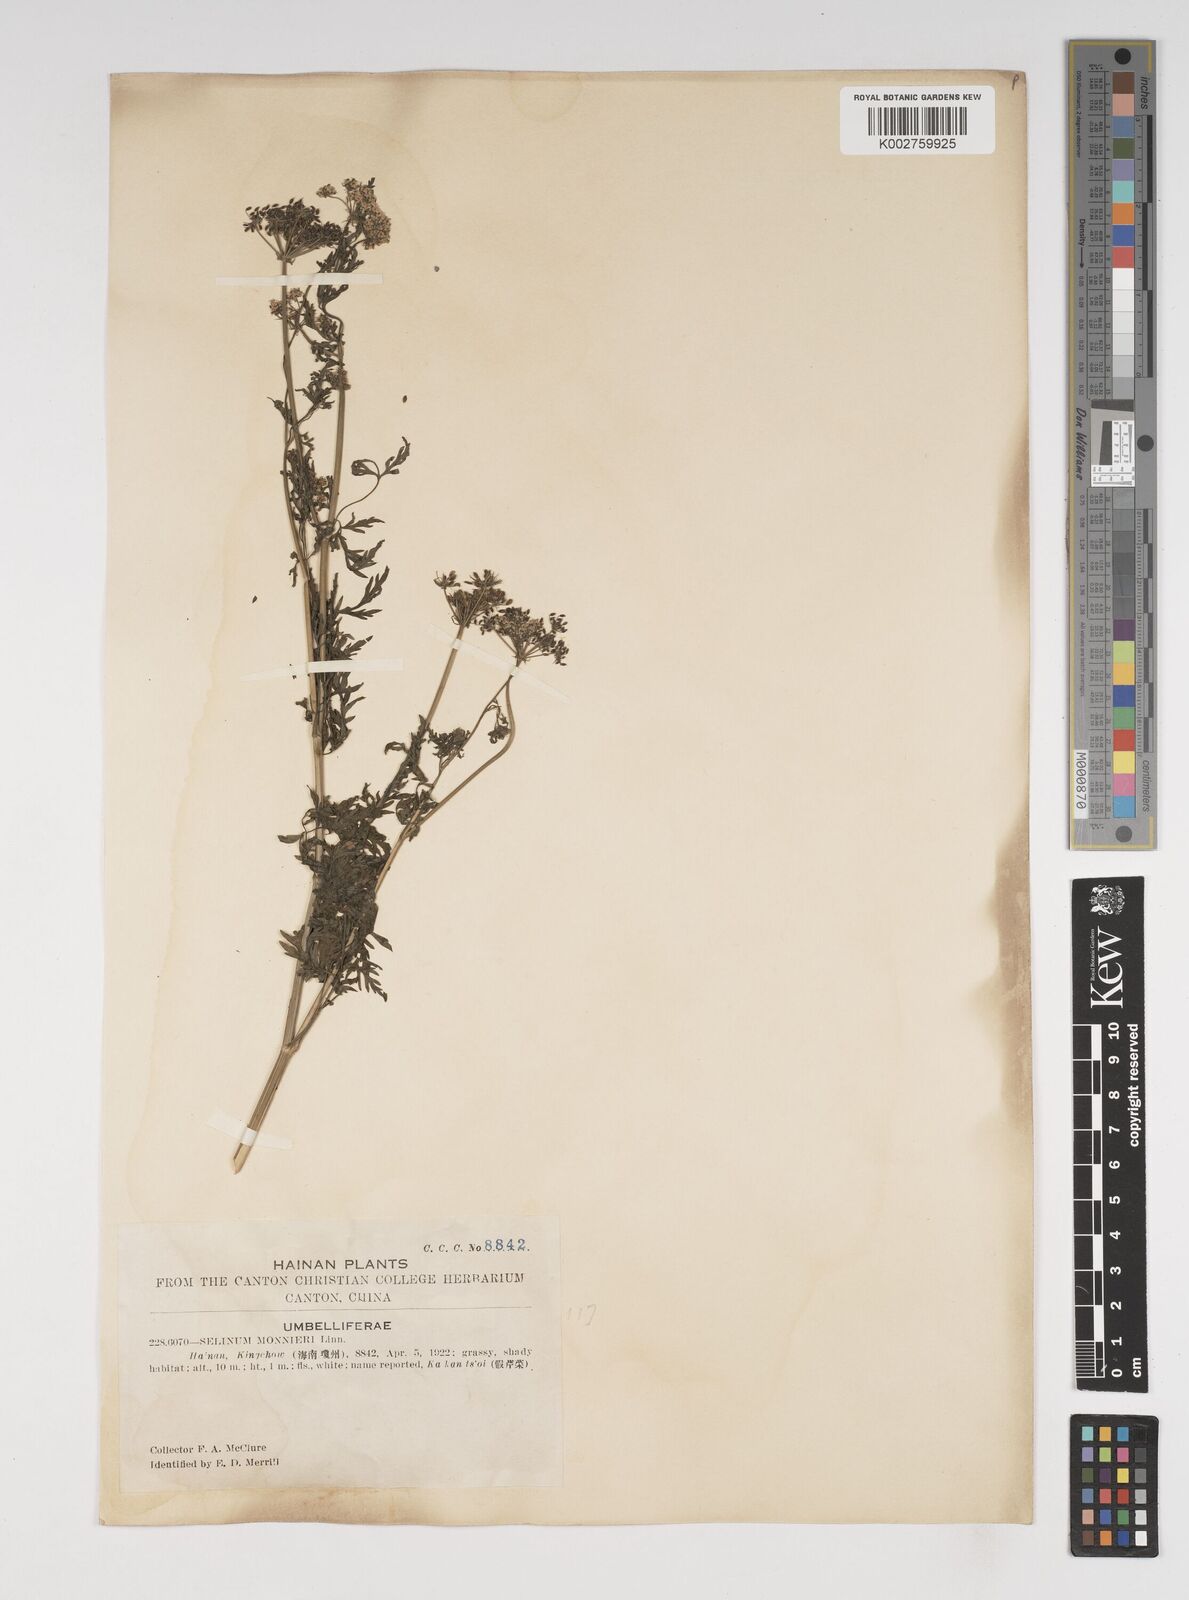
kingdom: Plantae
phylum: Tracheophyta
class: Magnoliopsida
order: Apiales
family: Apiaceae
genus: Cnidium
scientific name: Cnidium monnieri
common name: Monnier's snowparsley
